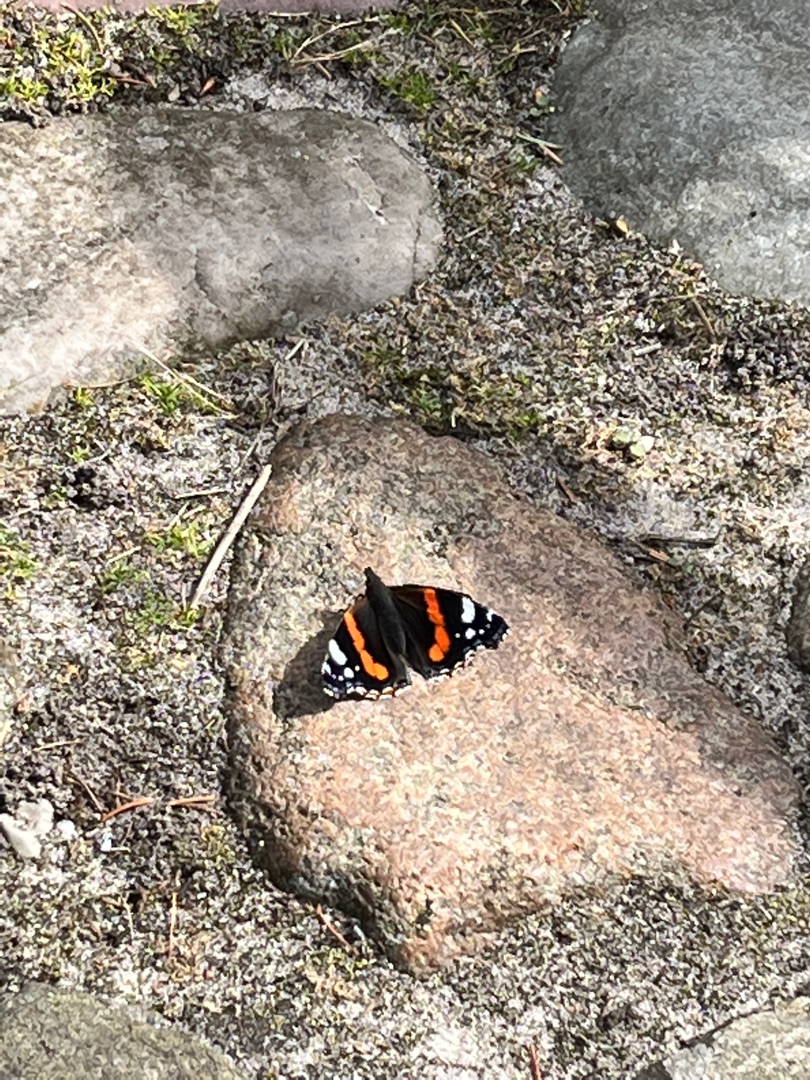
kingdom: Animalia
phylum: Arthropoda
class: Insecta
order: Lepidoptera
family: Nymphalidae
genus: Vanessa
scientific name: Vanessa atalanta
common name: Admiral
